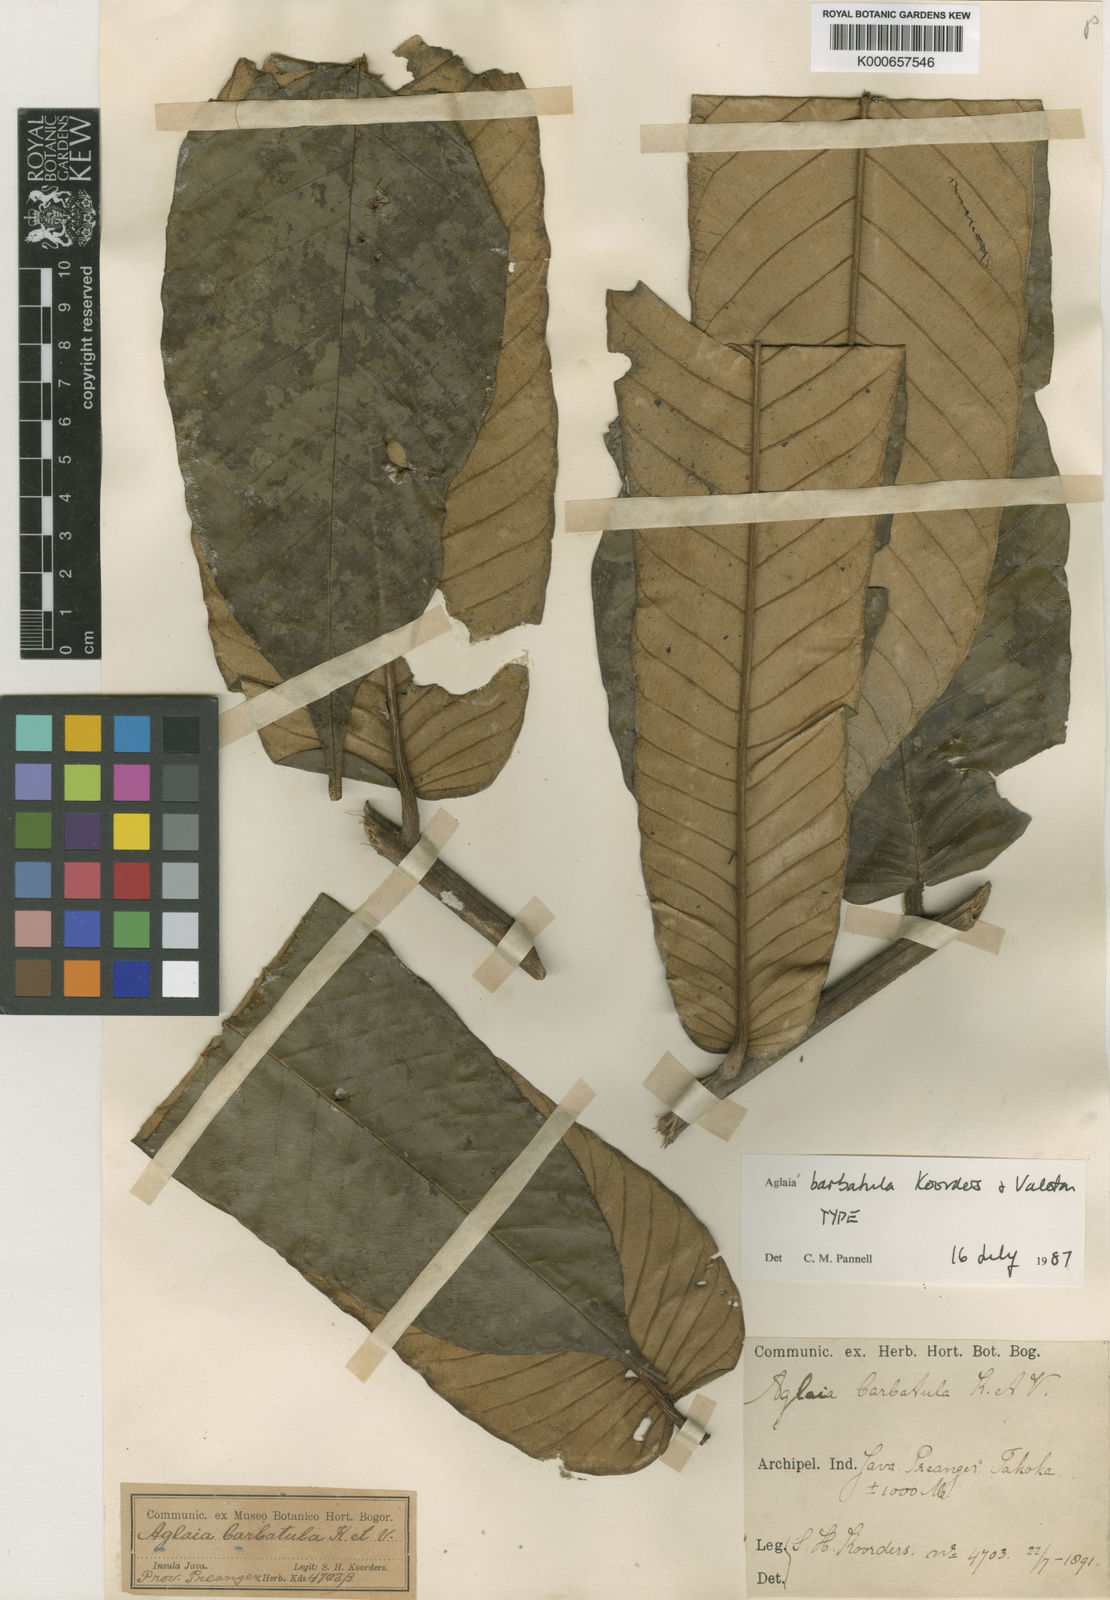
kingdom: Plantae
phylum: Tracheophyta
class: Magnoliopsida
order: Sapindales
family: Meliaceae
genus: Aglaia
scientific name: Aglaia pachyphylla
